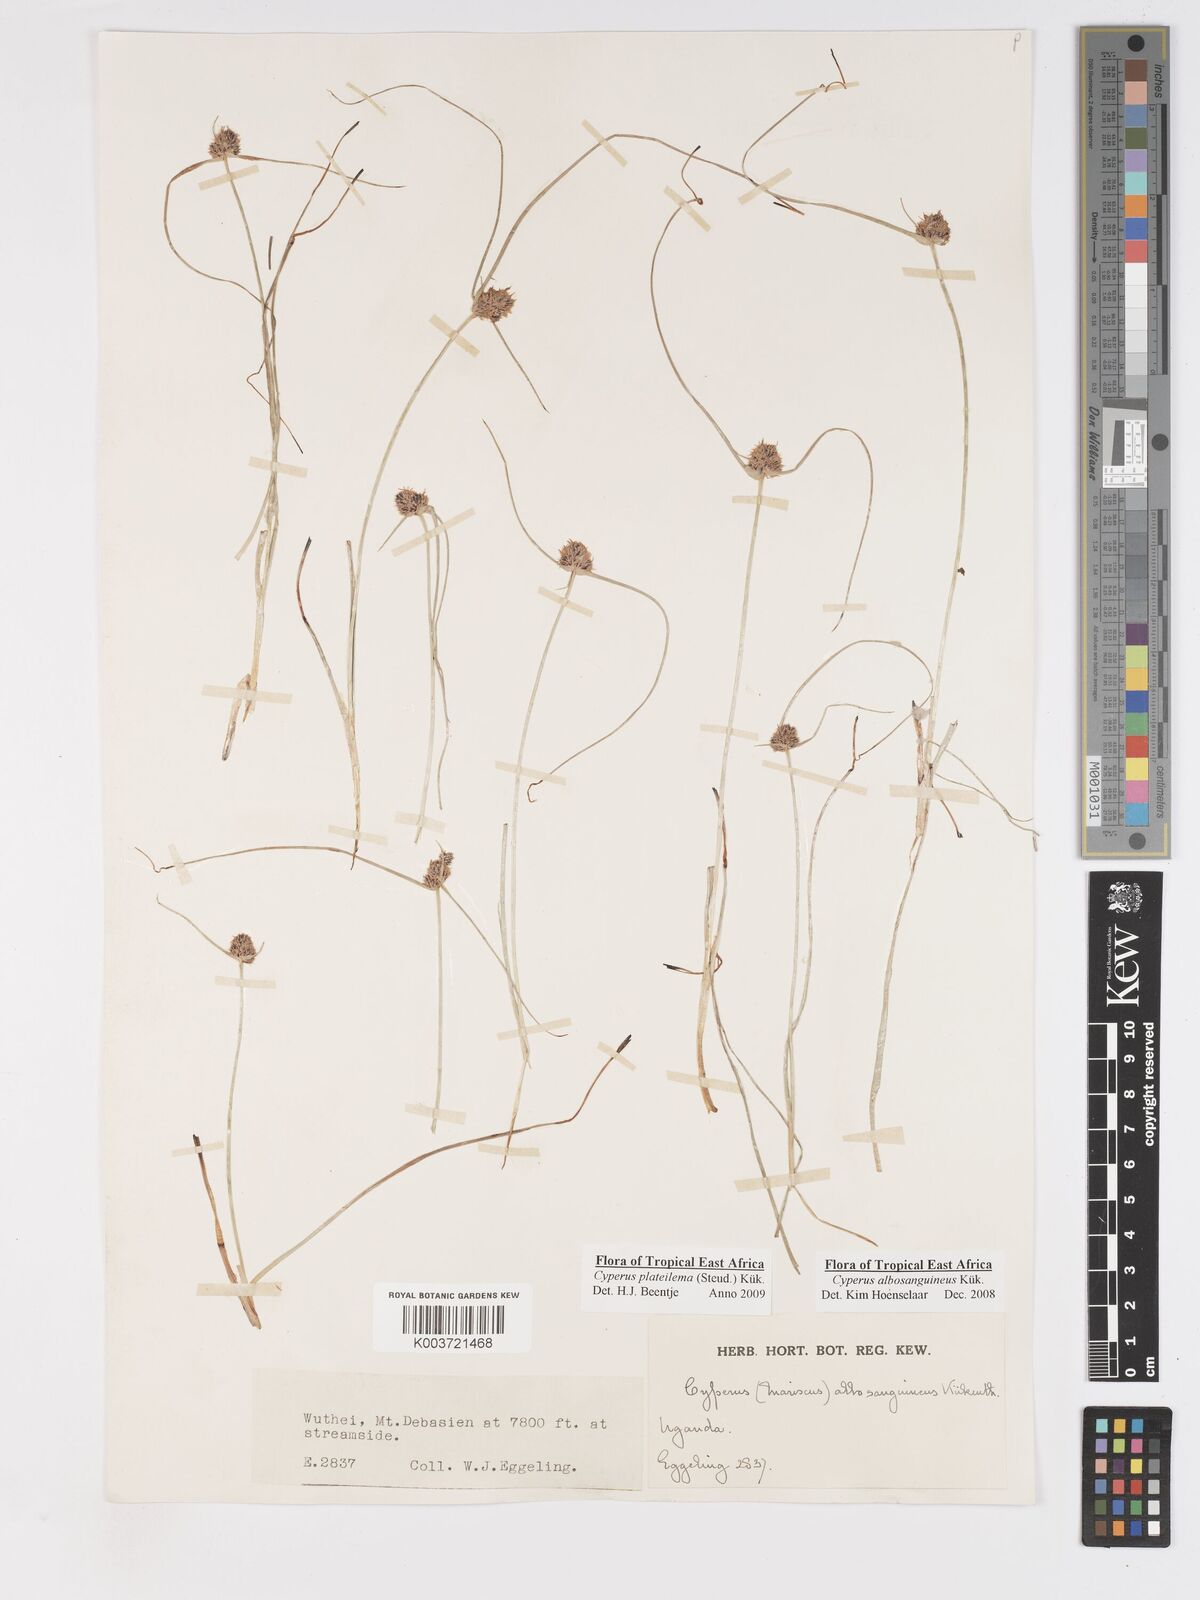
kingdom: Plantae
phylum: Tracheophyta
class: Liliopsida
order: Poales
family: Cyperaceae
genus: Cyperus
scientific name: Cyperus plateilema
